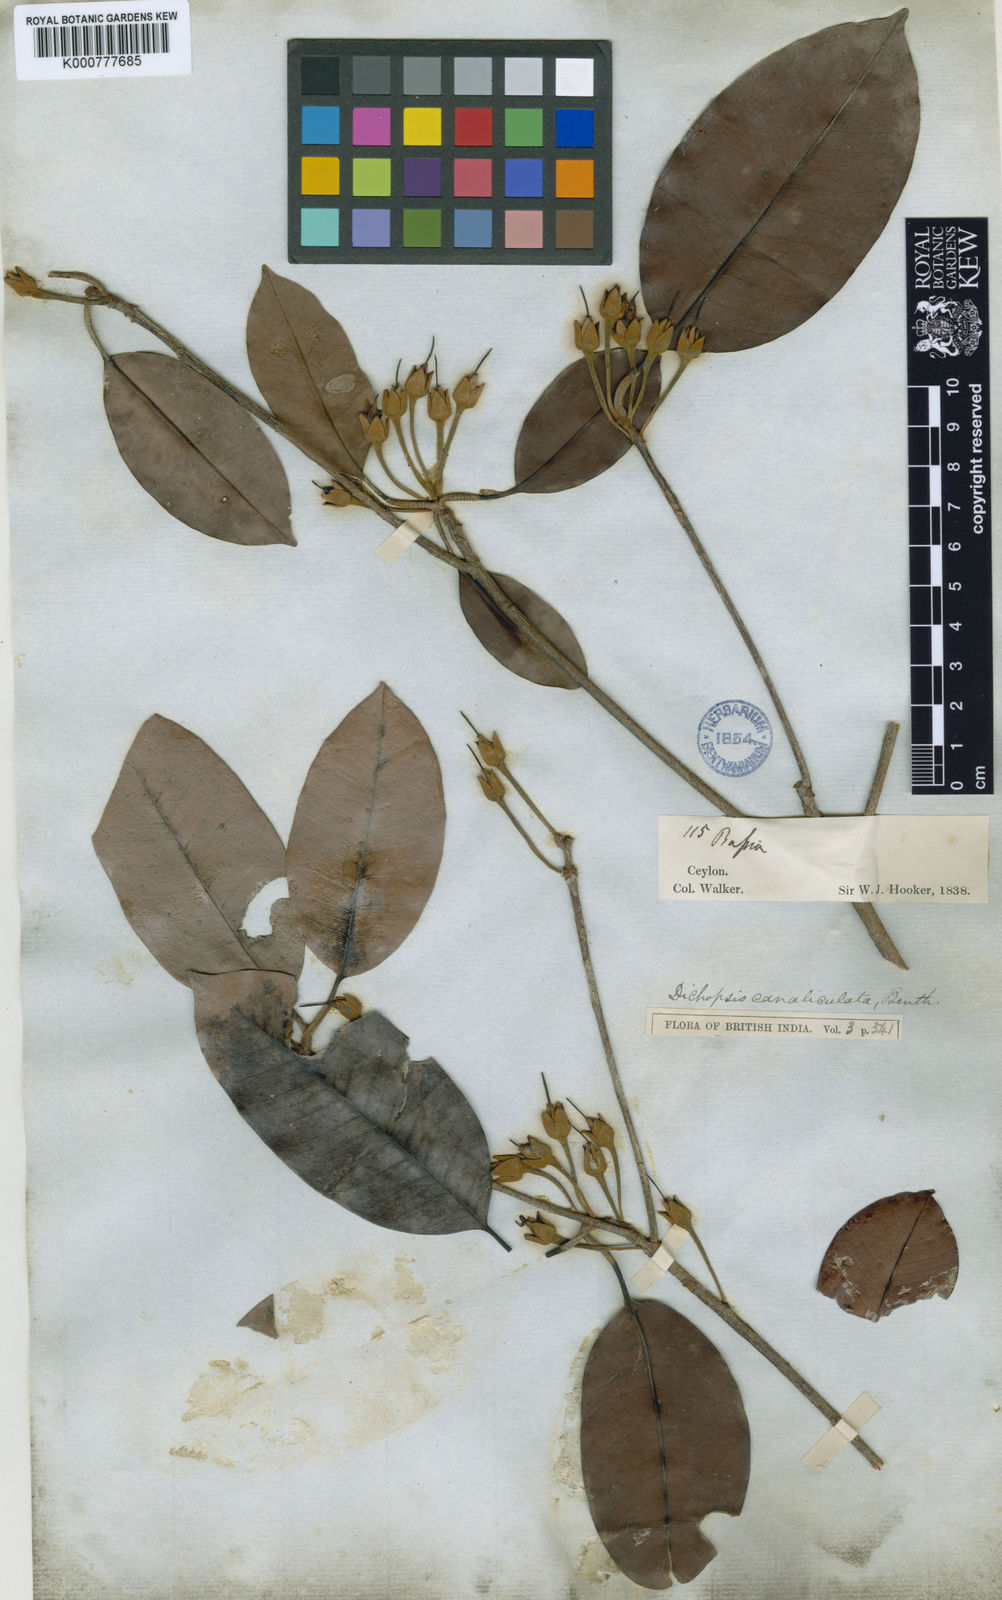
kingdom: Plantae
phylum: Tracheophyta
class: Magnoliopsida
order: Ericales
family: Sapotaceae
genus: Palaquium
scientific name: Palaquium canaliculatum
